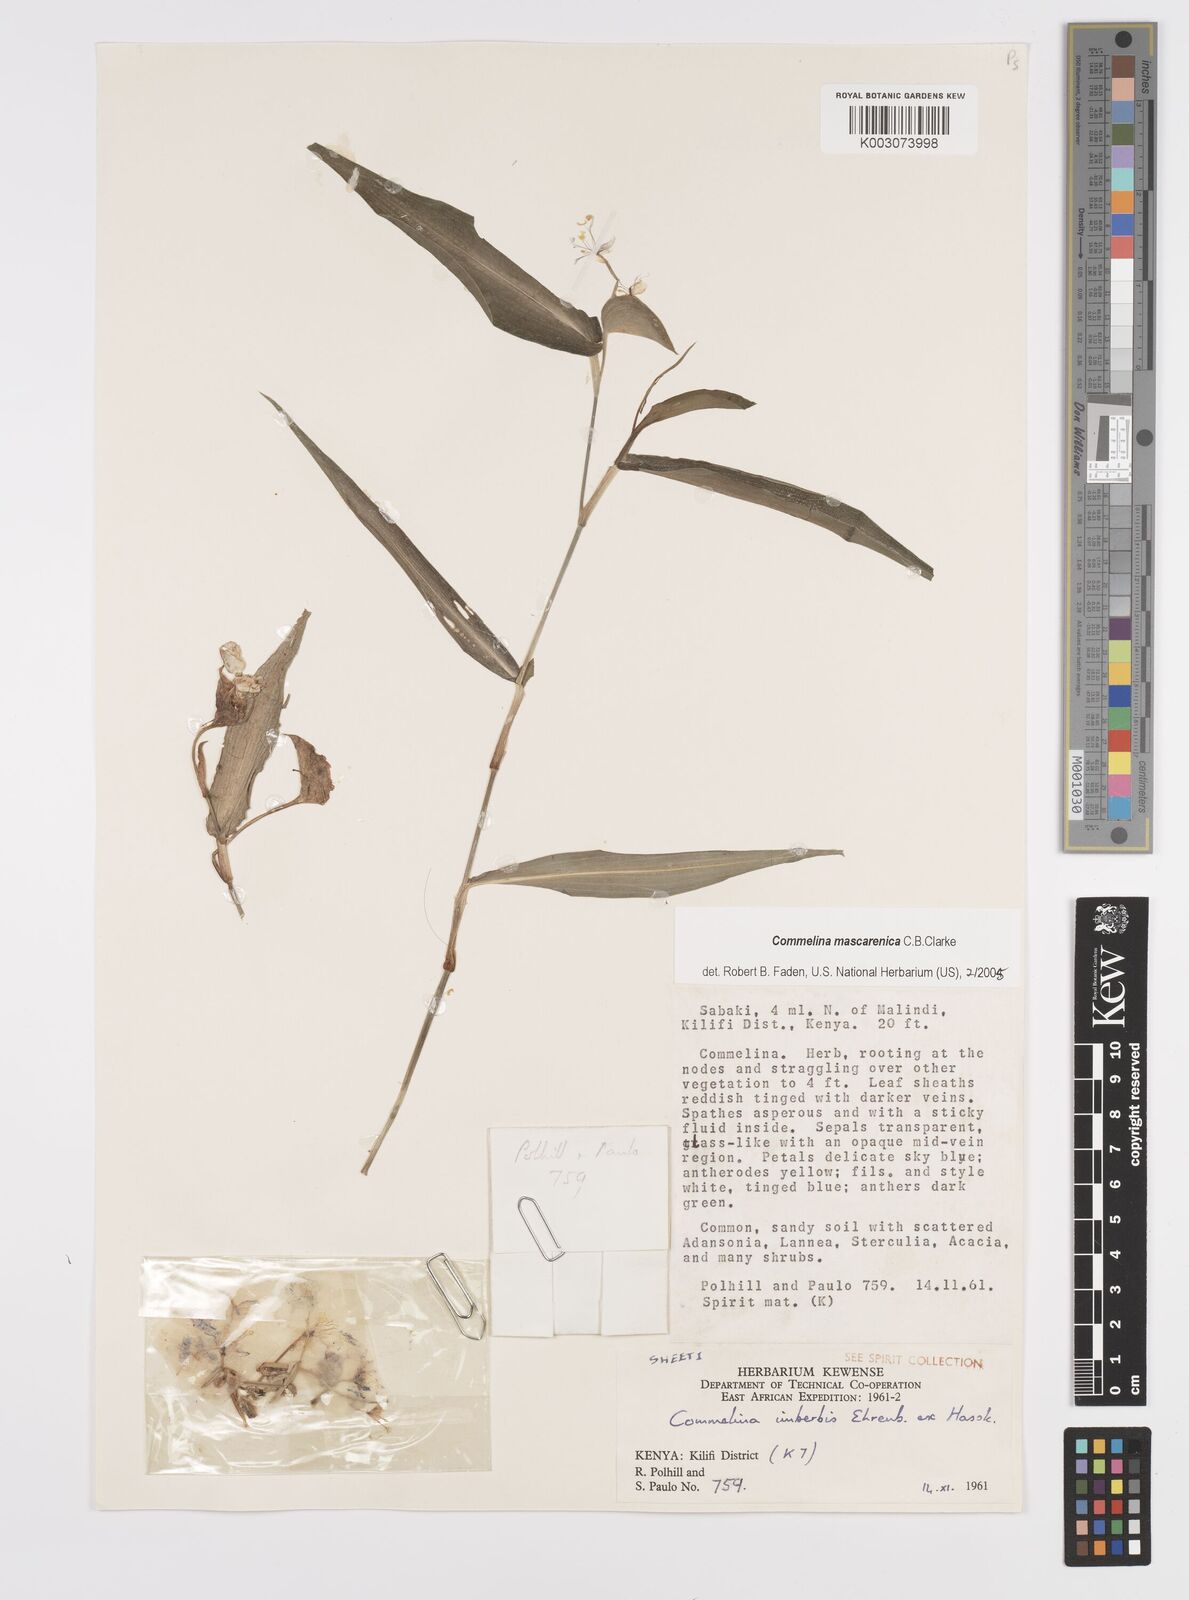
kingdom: Plantae
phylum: Tracheophyta
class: Liliopsida
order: Commelinales
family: Commelinaceae
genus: Commelina
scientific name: Commelina mascarenica
